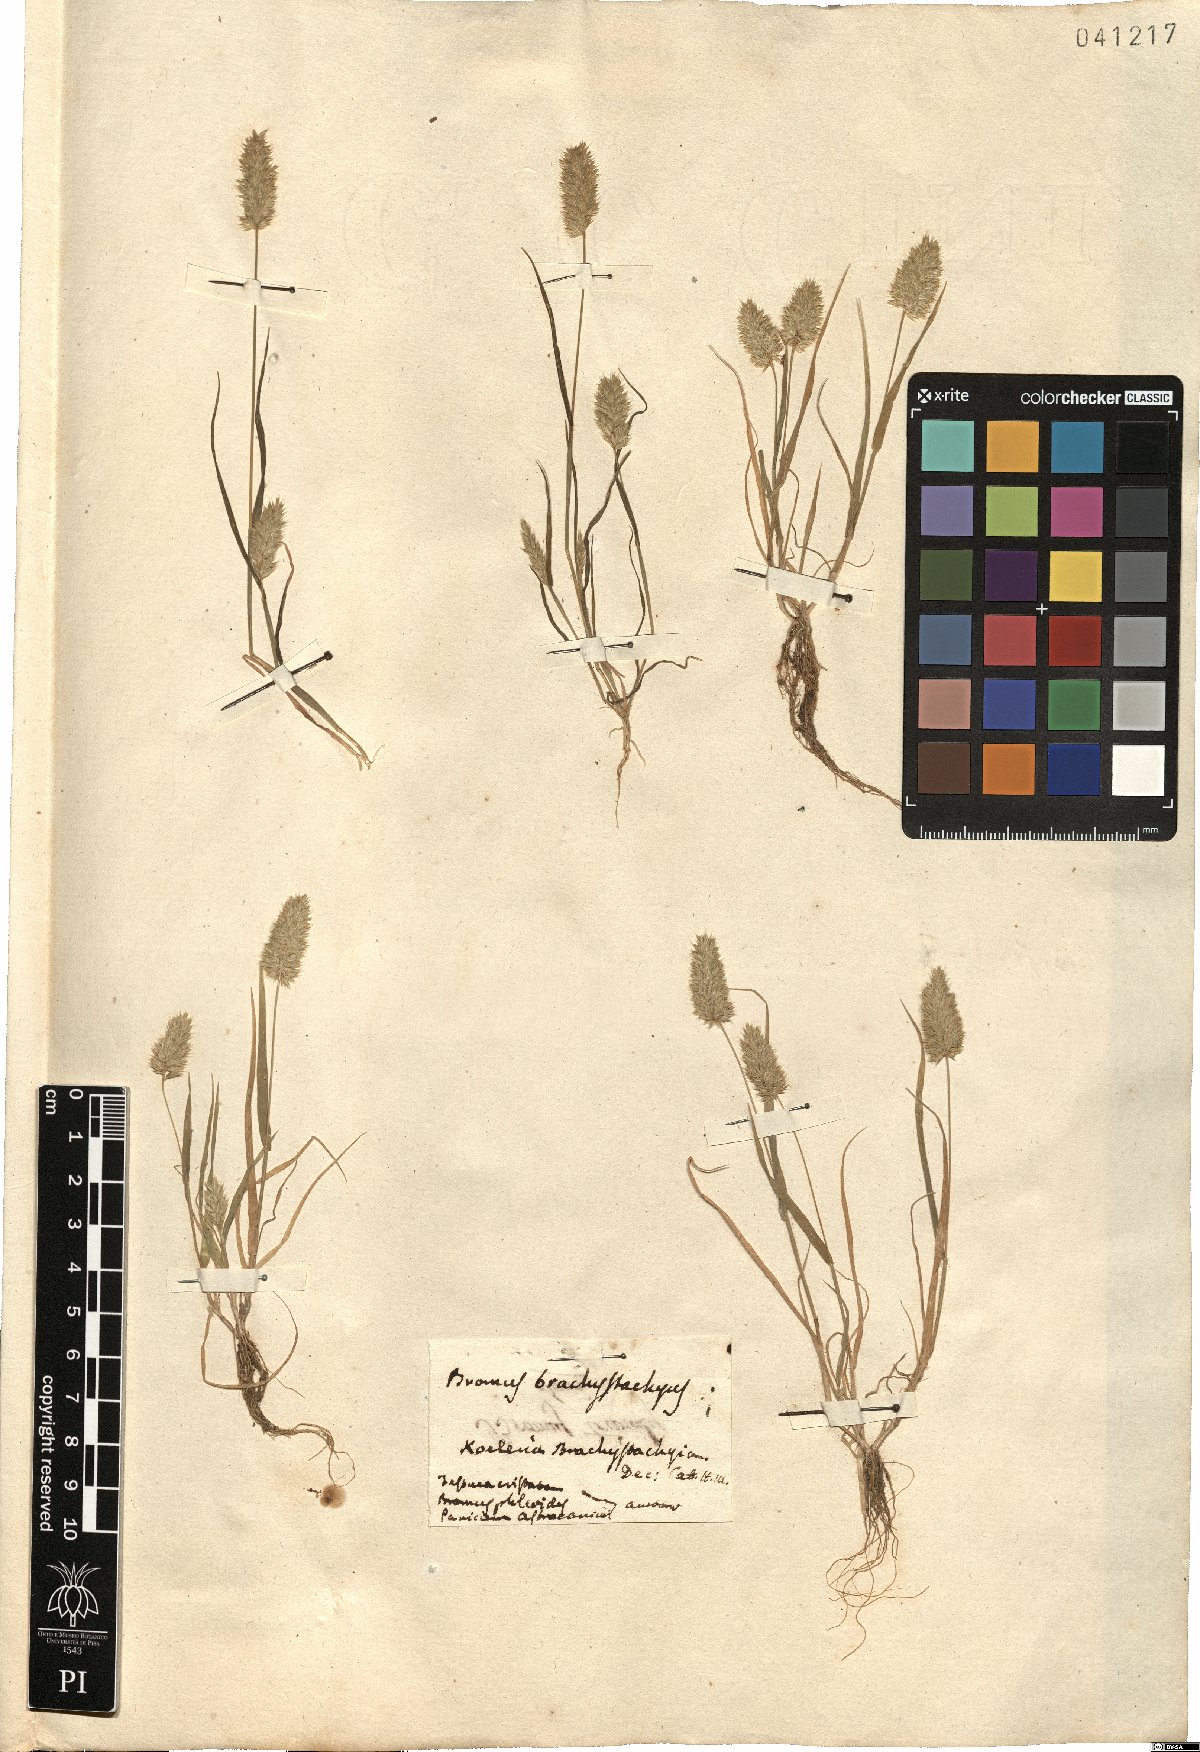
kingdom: Plantae
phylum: Tracheophyta
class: Liliopsida
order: Poales
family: Poaceae
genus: Rostraria
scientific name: Rostraria cristata
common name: Mediterranean hair-grass
